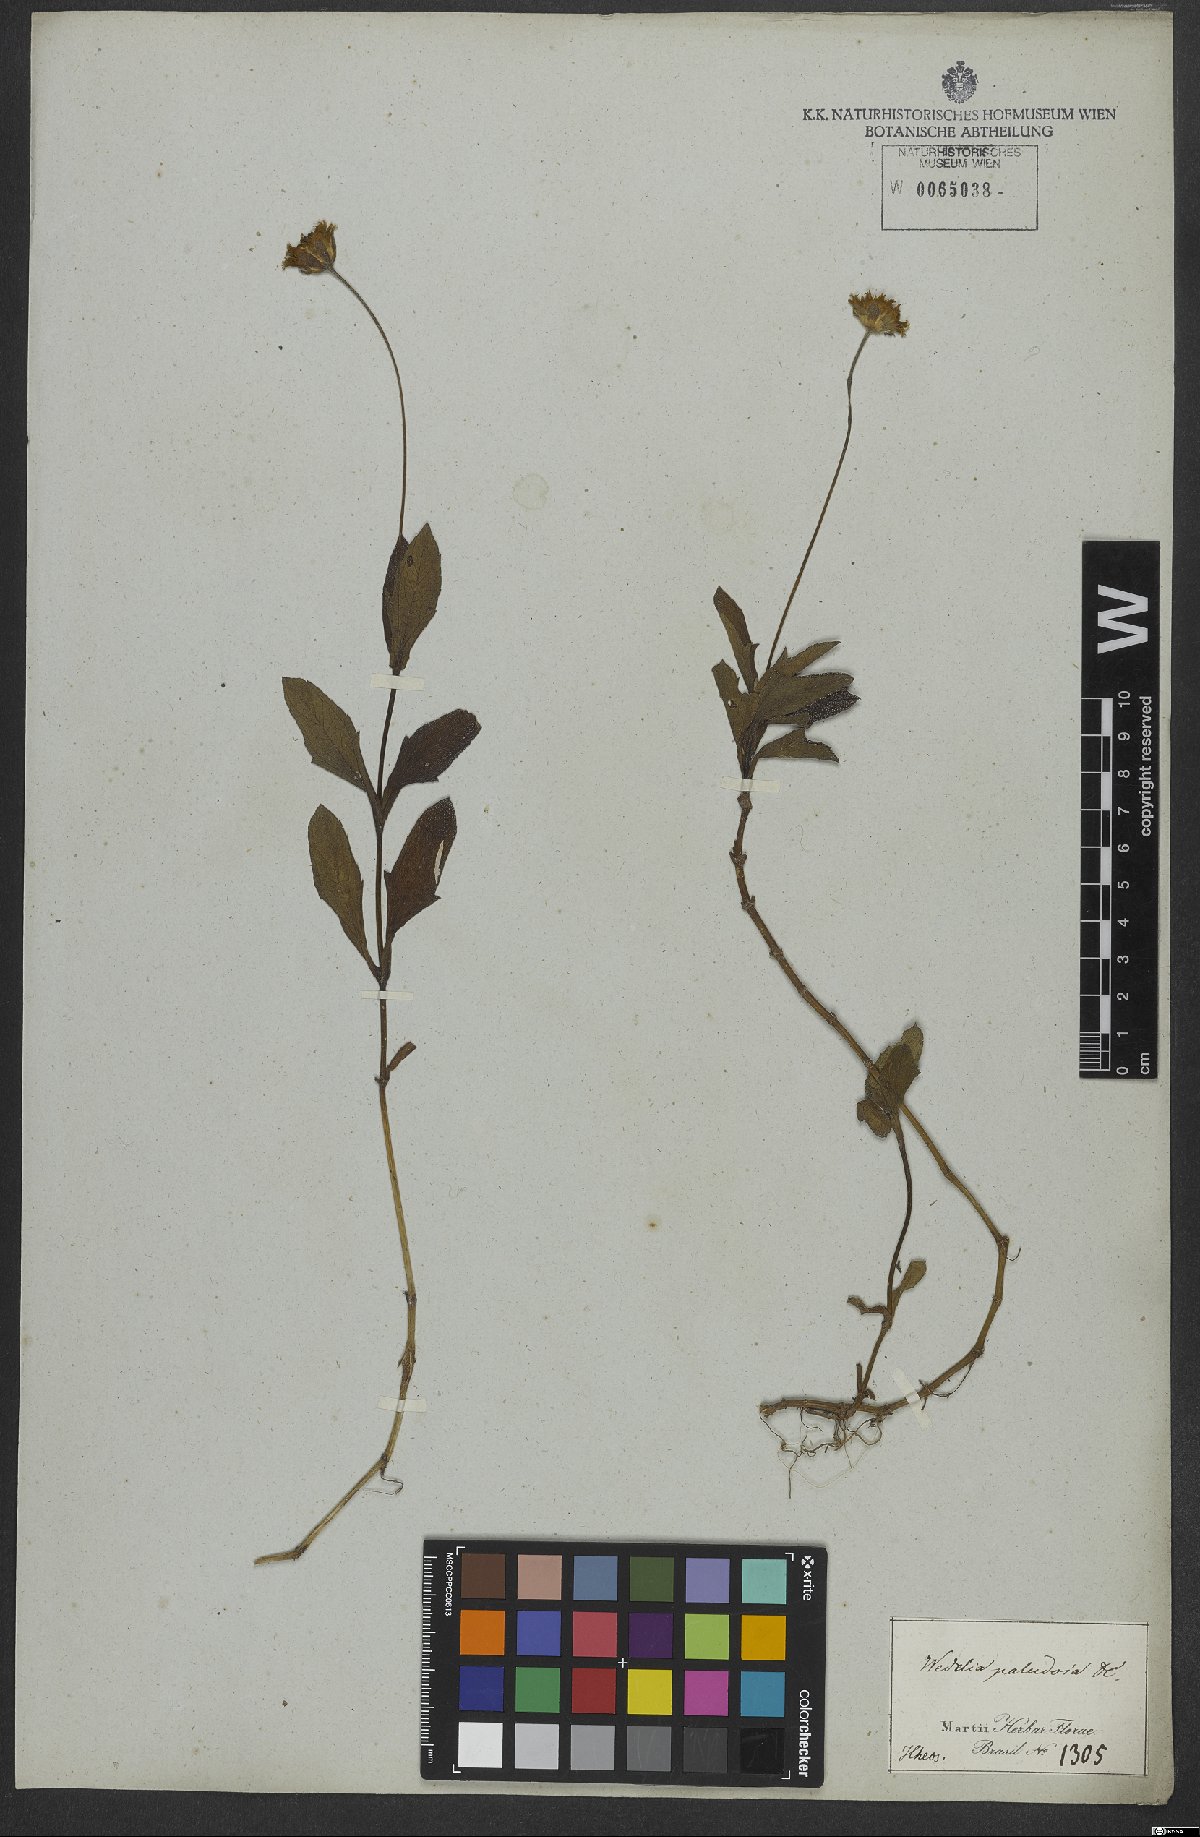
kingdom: Plantae
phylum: Tracheophyta
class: Magnoliopsida
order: Asterales
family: Asteraceae
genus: Sphagneticola
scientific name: Sphagneticola trilobata
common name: Bay biscayne creeping-oxeye
